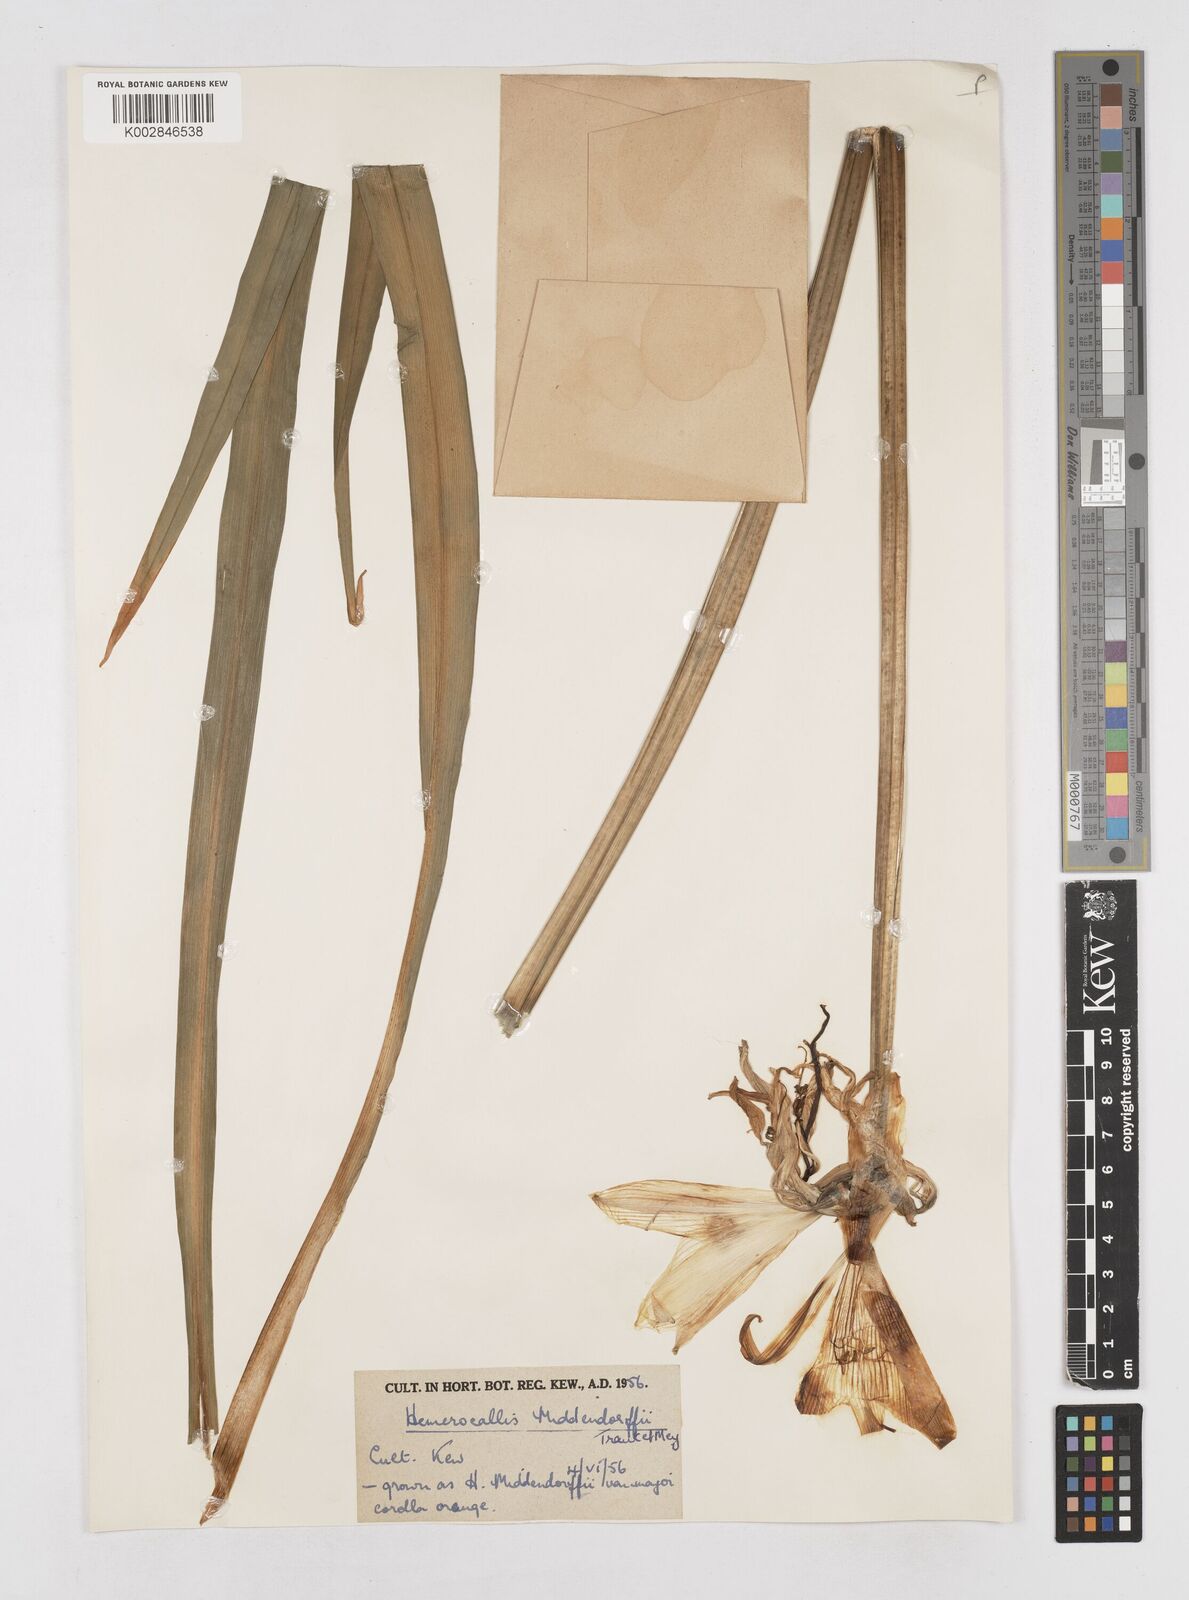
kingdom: Plantae
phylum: Tracheophyta
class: Liliopsida
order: Asparagales
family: Asphodelaceae
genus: Hemerocallis
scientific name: Hemerocallis middendorffii
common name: Amur day-lily
